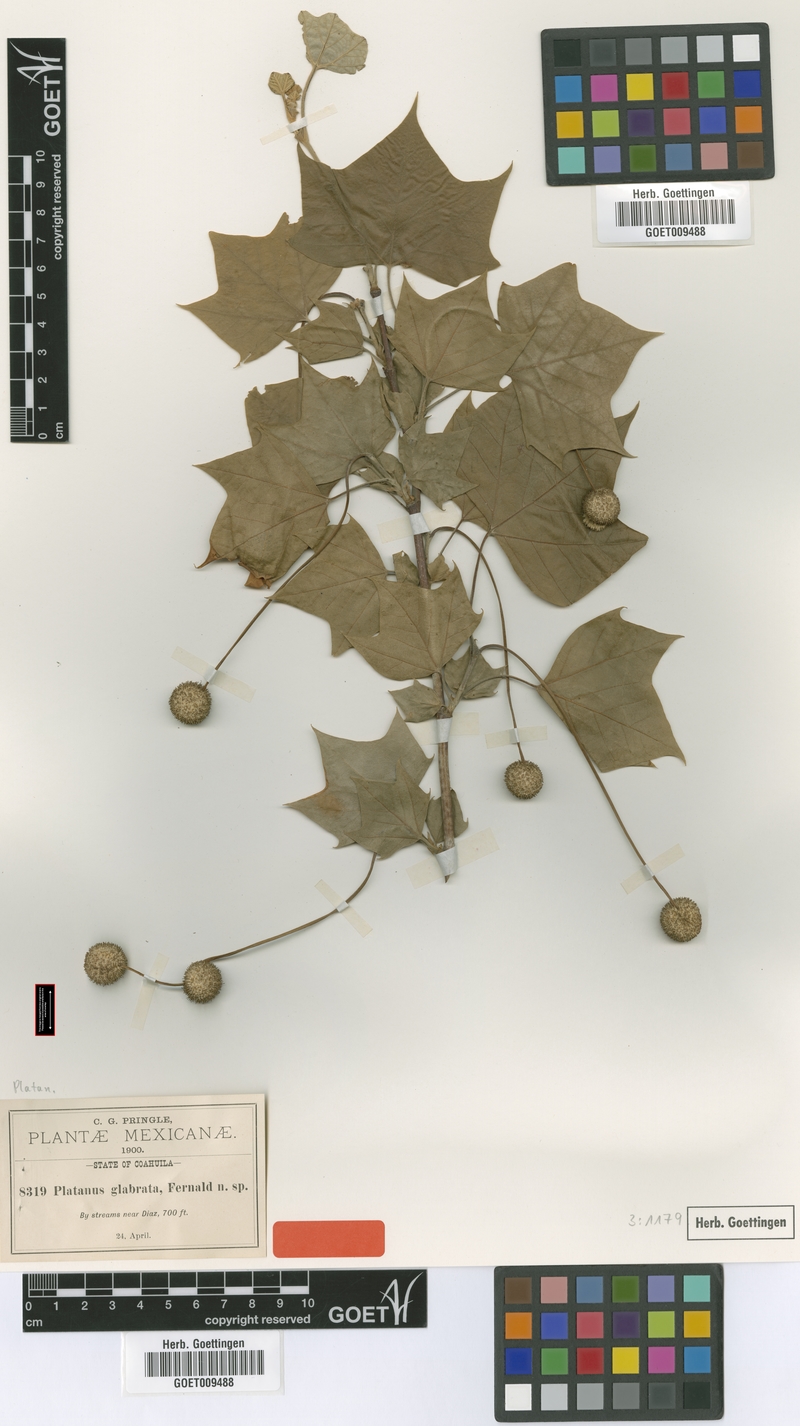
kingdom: Plantae
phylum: Tracheophyta
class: Magnoliopsida
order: Proteales
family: Platanaceae
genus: Platanus
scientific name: Platanus mexicana
